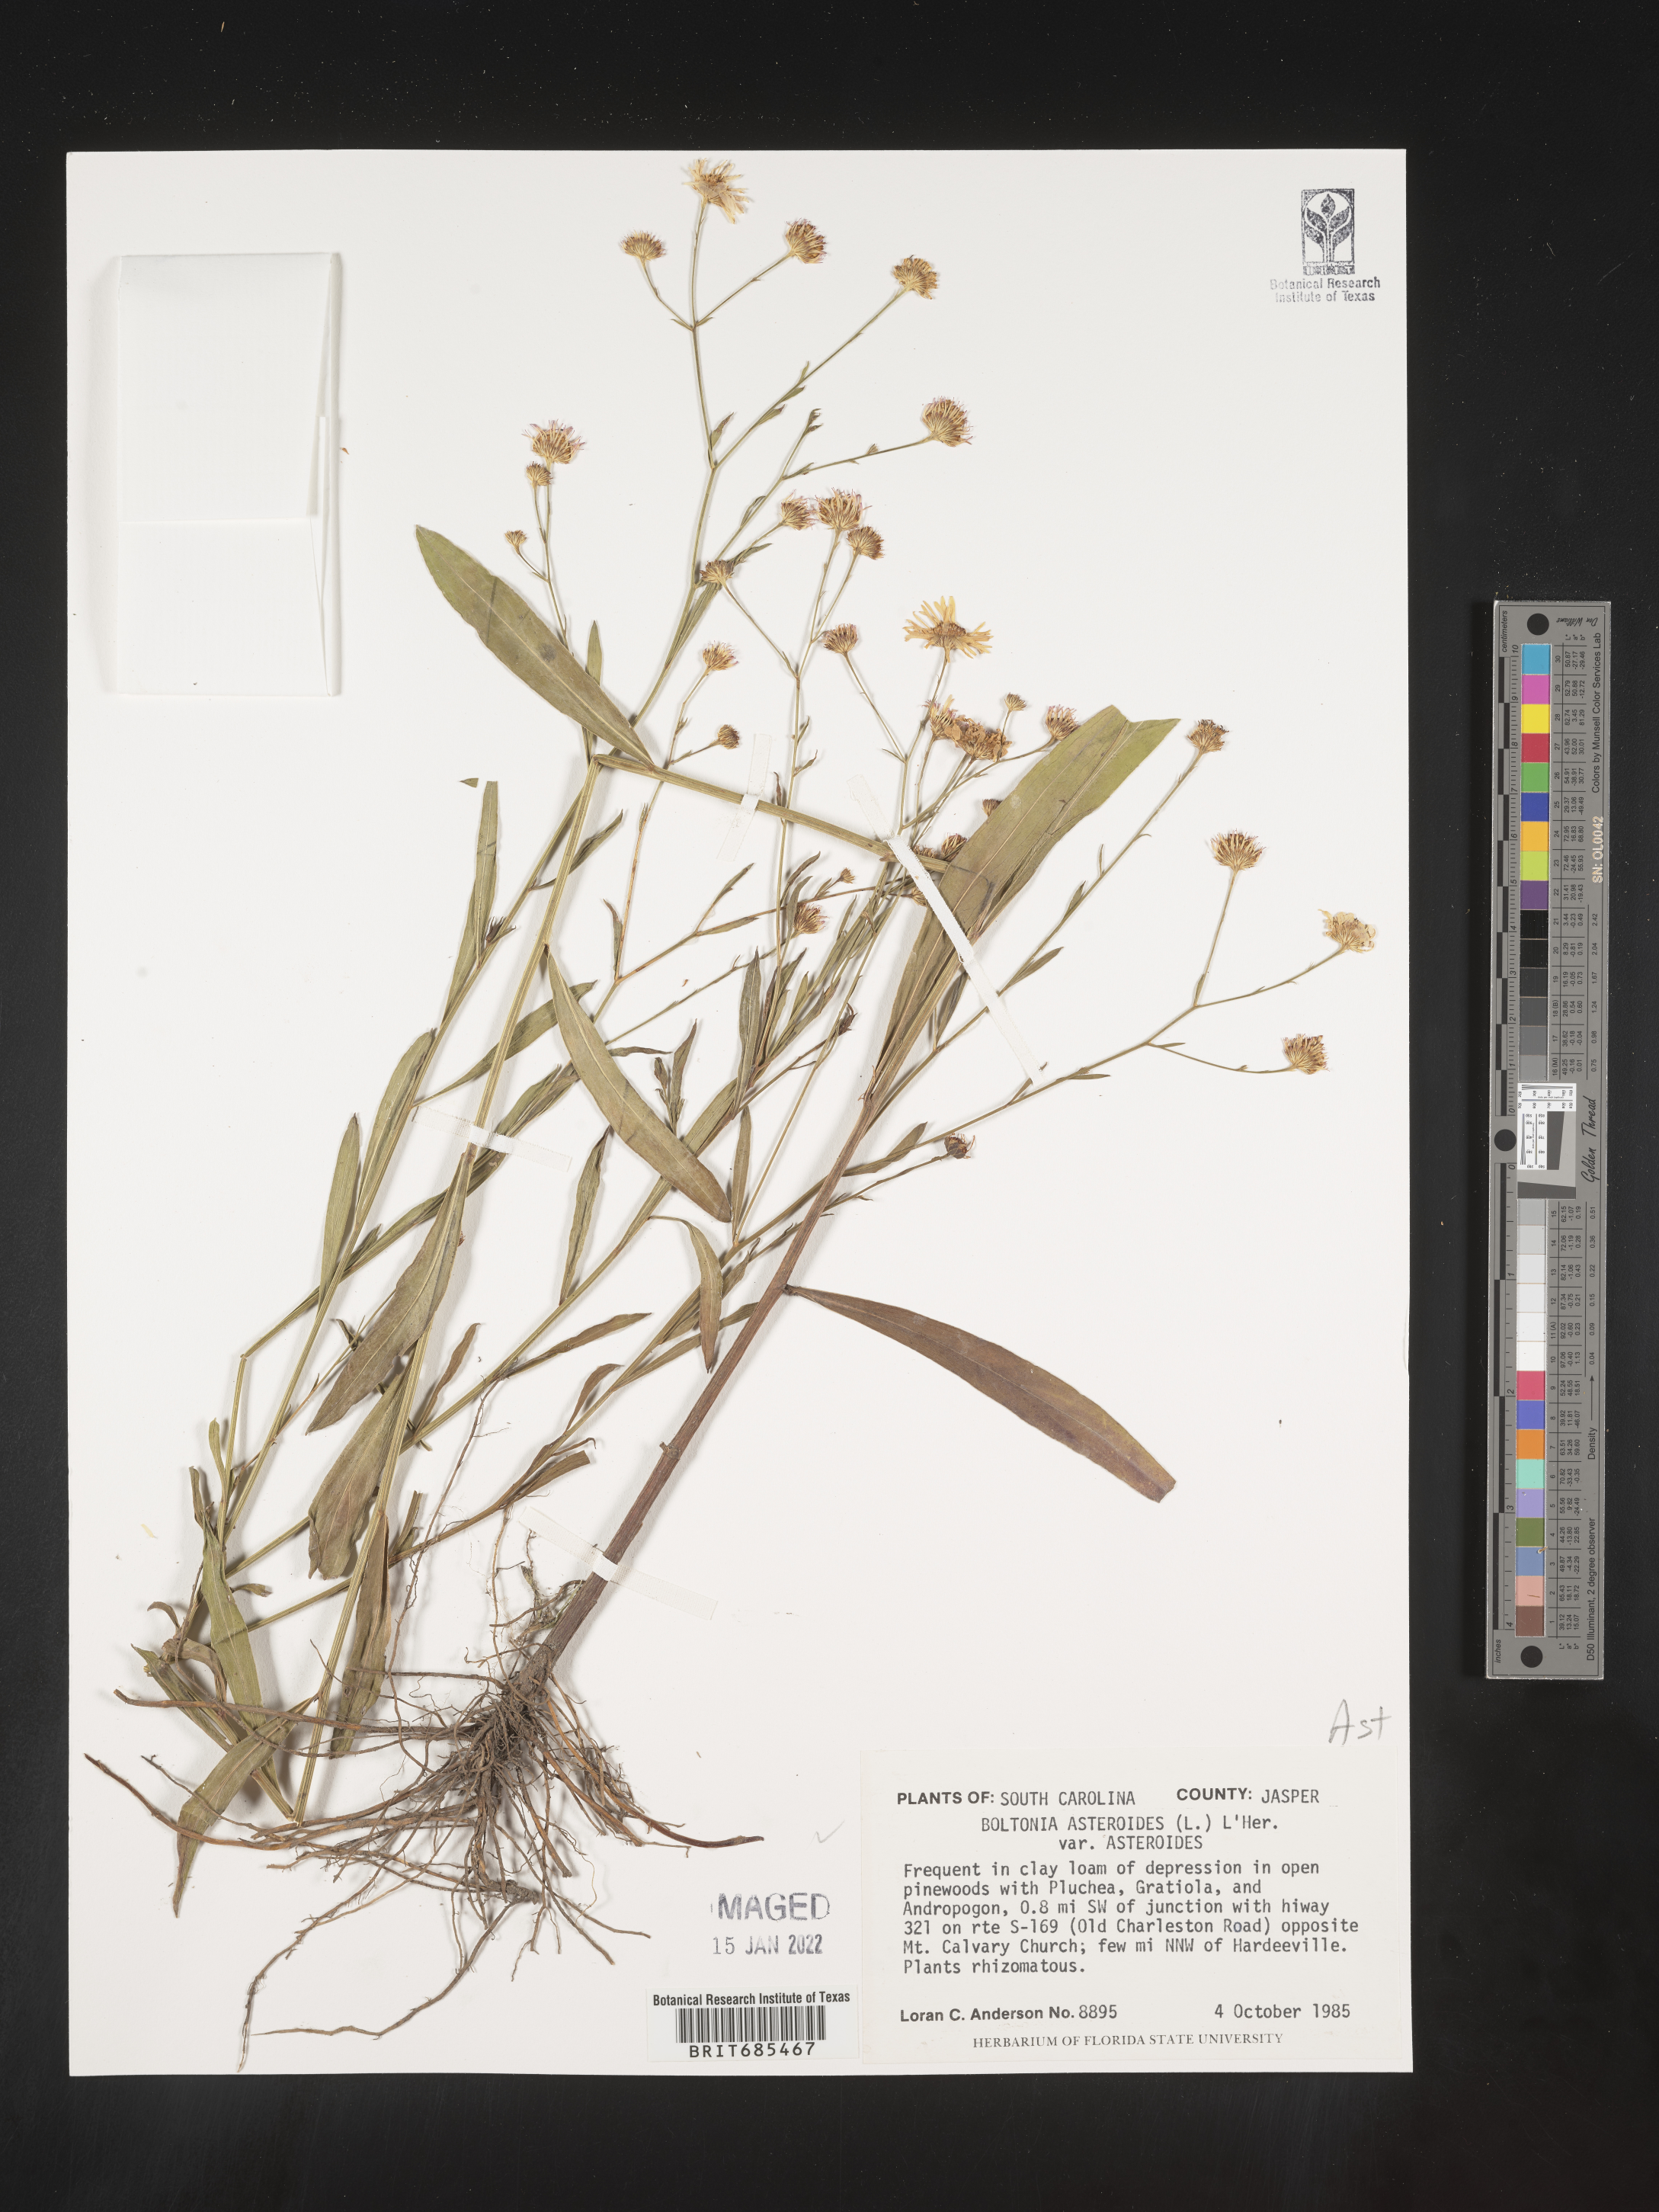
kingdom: Plantae
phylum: Tracheophyta
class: Magnoliopsida
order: Asterales
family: Asteraceae
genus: Boltonia
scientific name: Boltonia asteroides
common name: False chamomile
